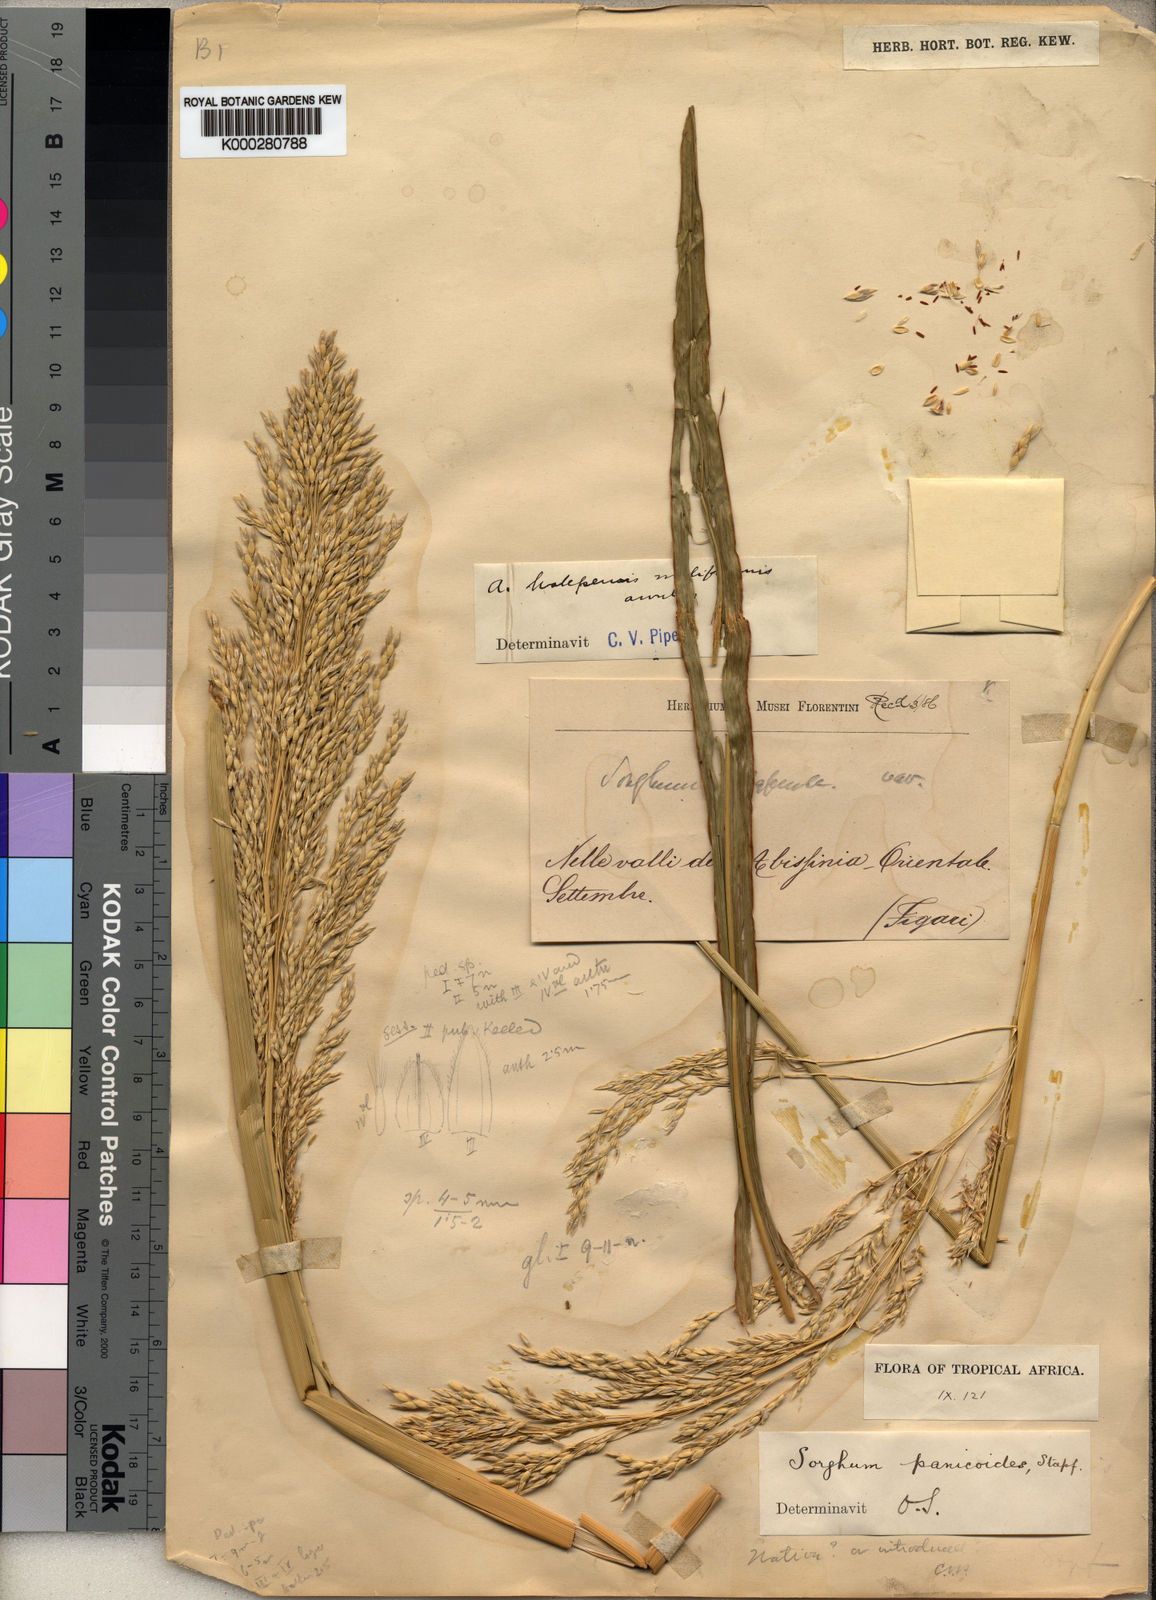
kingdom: Plantae
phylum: Tracheophyta
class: Liliopsida
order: Poales
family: Poaceae
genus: Sorghum
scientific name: Sorghum
